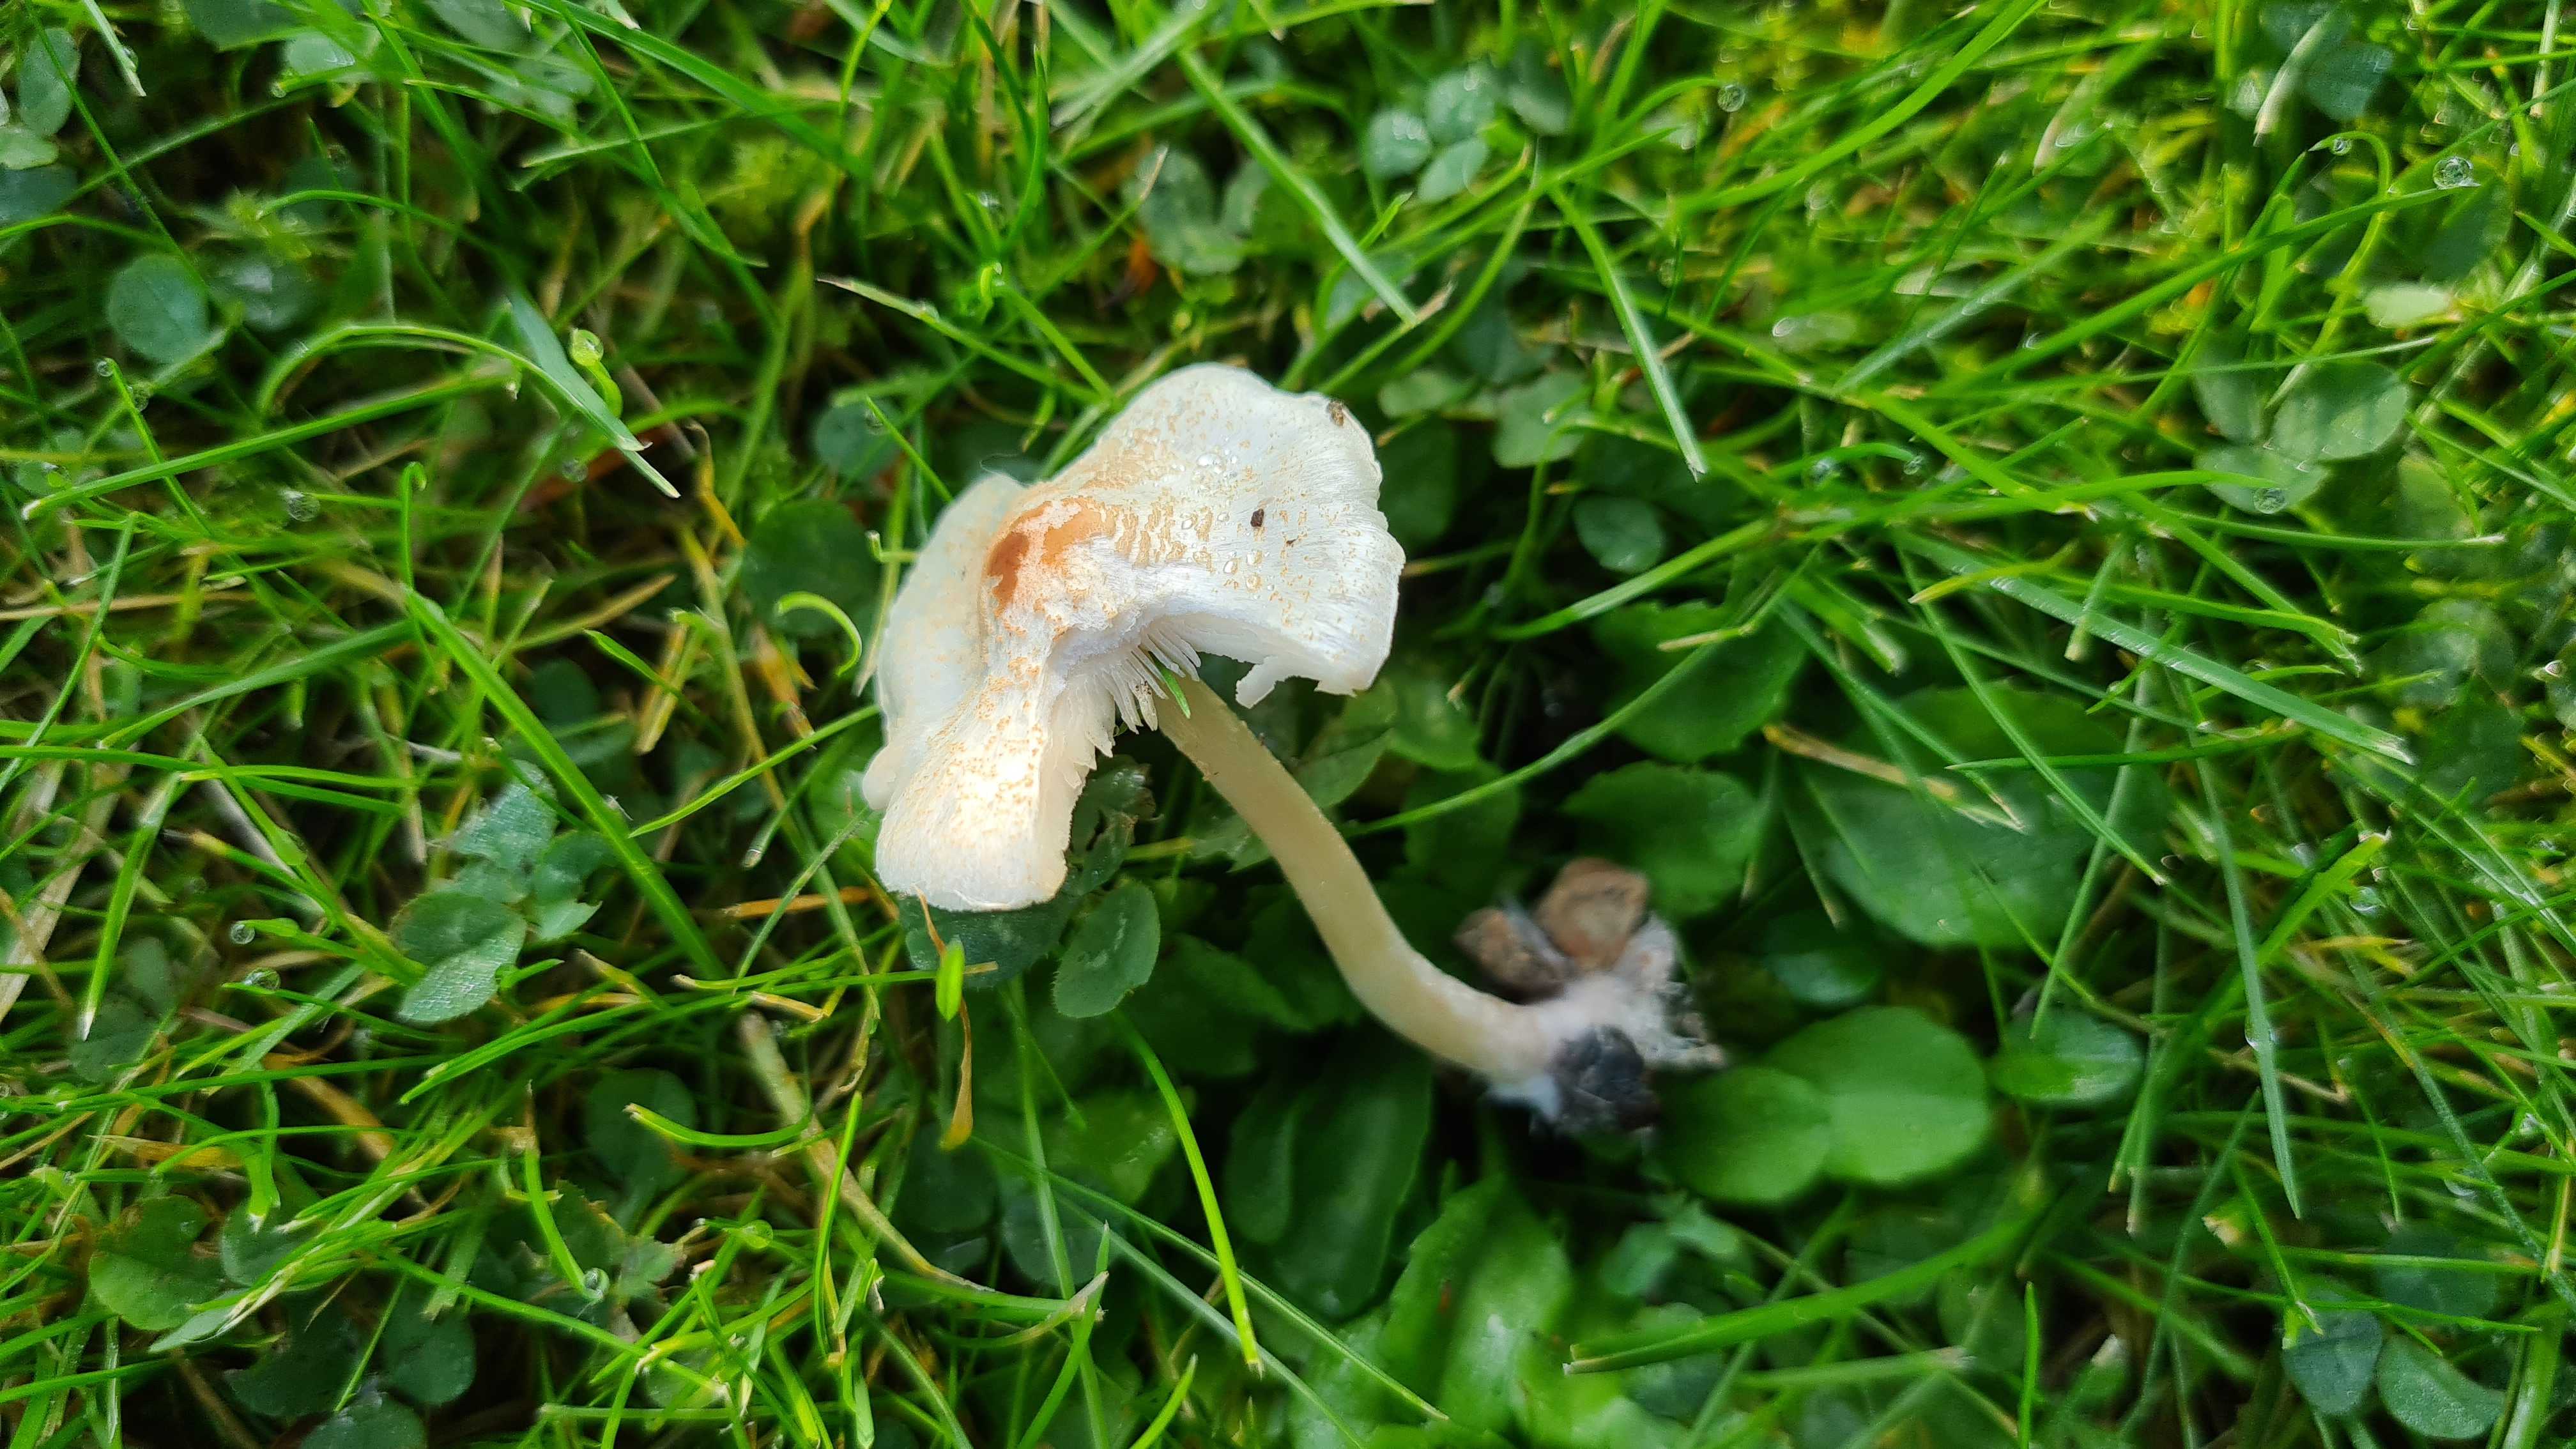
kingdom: Fungi
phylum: Basidiomycota
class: Agaricomycetes
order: Agaricales
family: Agaricaceae
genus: Lepiota
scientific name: Lepiota cristata
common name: stinkende parasolhat
